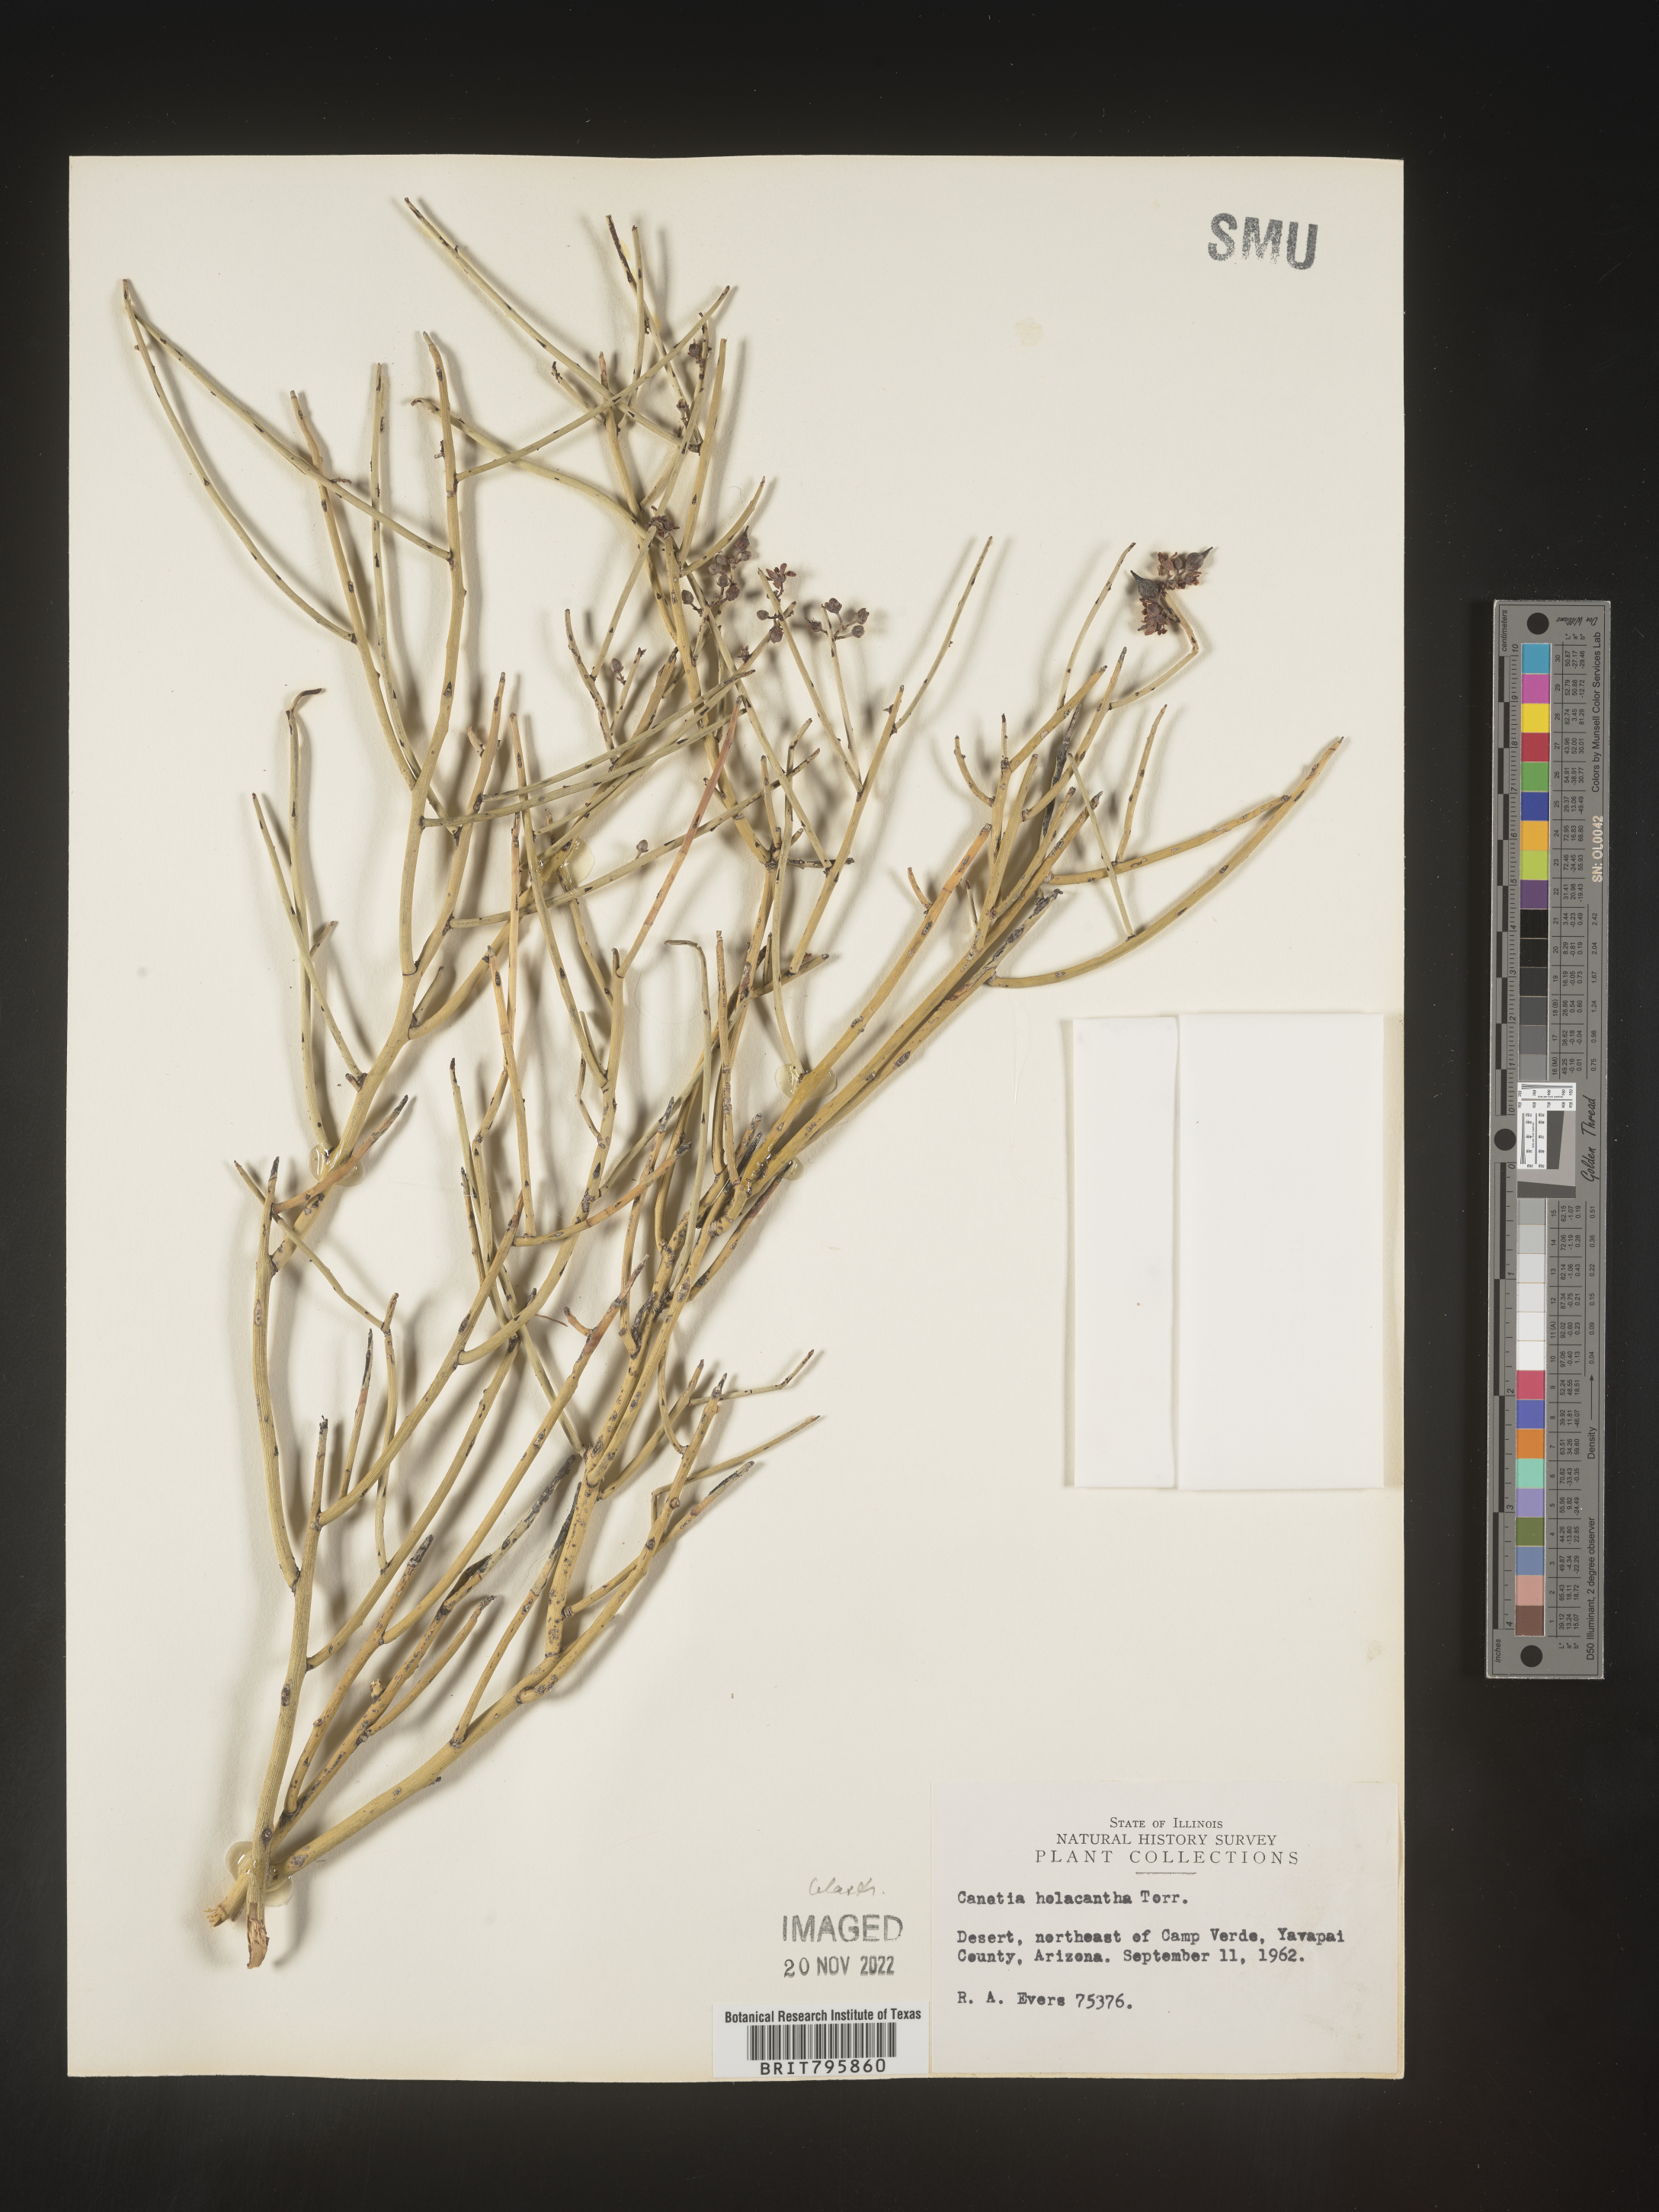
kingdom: Plantae
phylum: Tracheophyta
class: Magnoliopsida
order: Celastrales
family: Celastraceae
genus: Canotia
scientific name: Canotia
